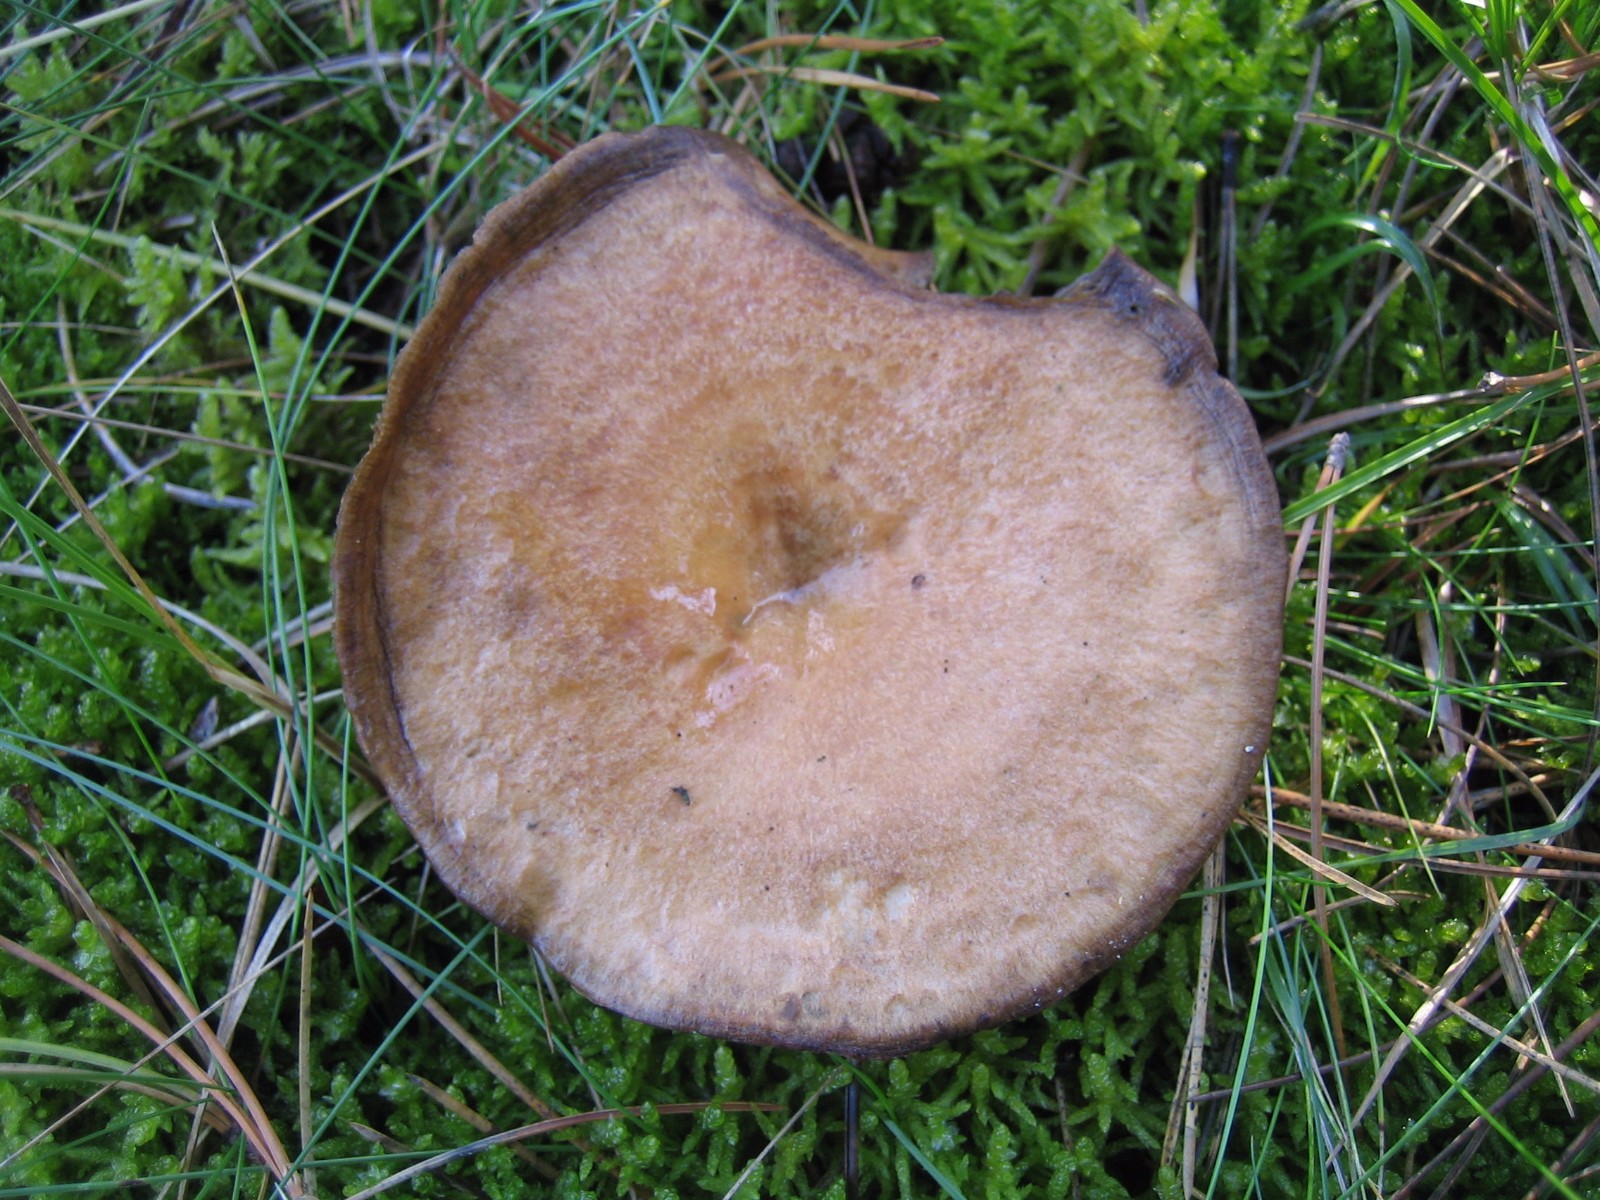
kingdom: Fungi
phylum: Basidiomycota
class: Agaricomycetes
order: Russulales
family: Russulaceae
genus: Lactarius
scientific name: Lactarius deliciosus
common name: velsmagende mælkehat
